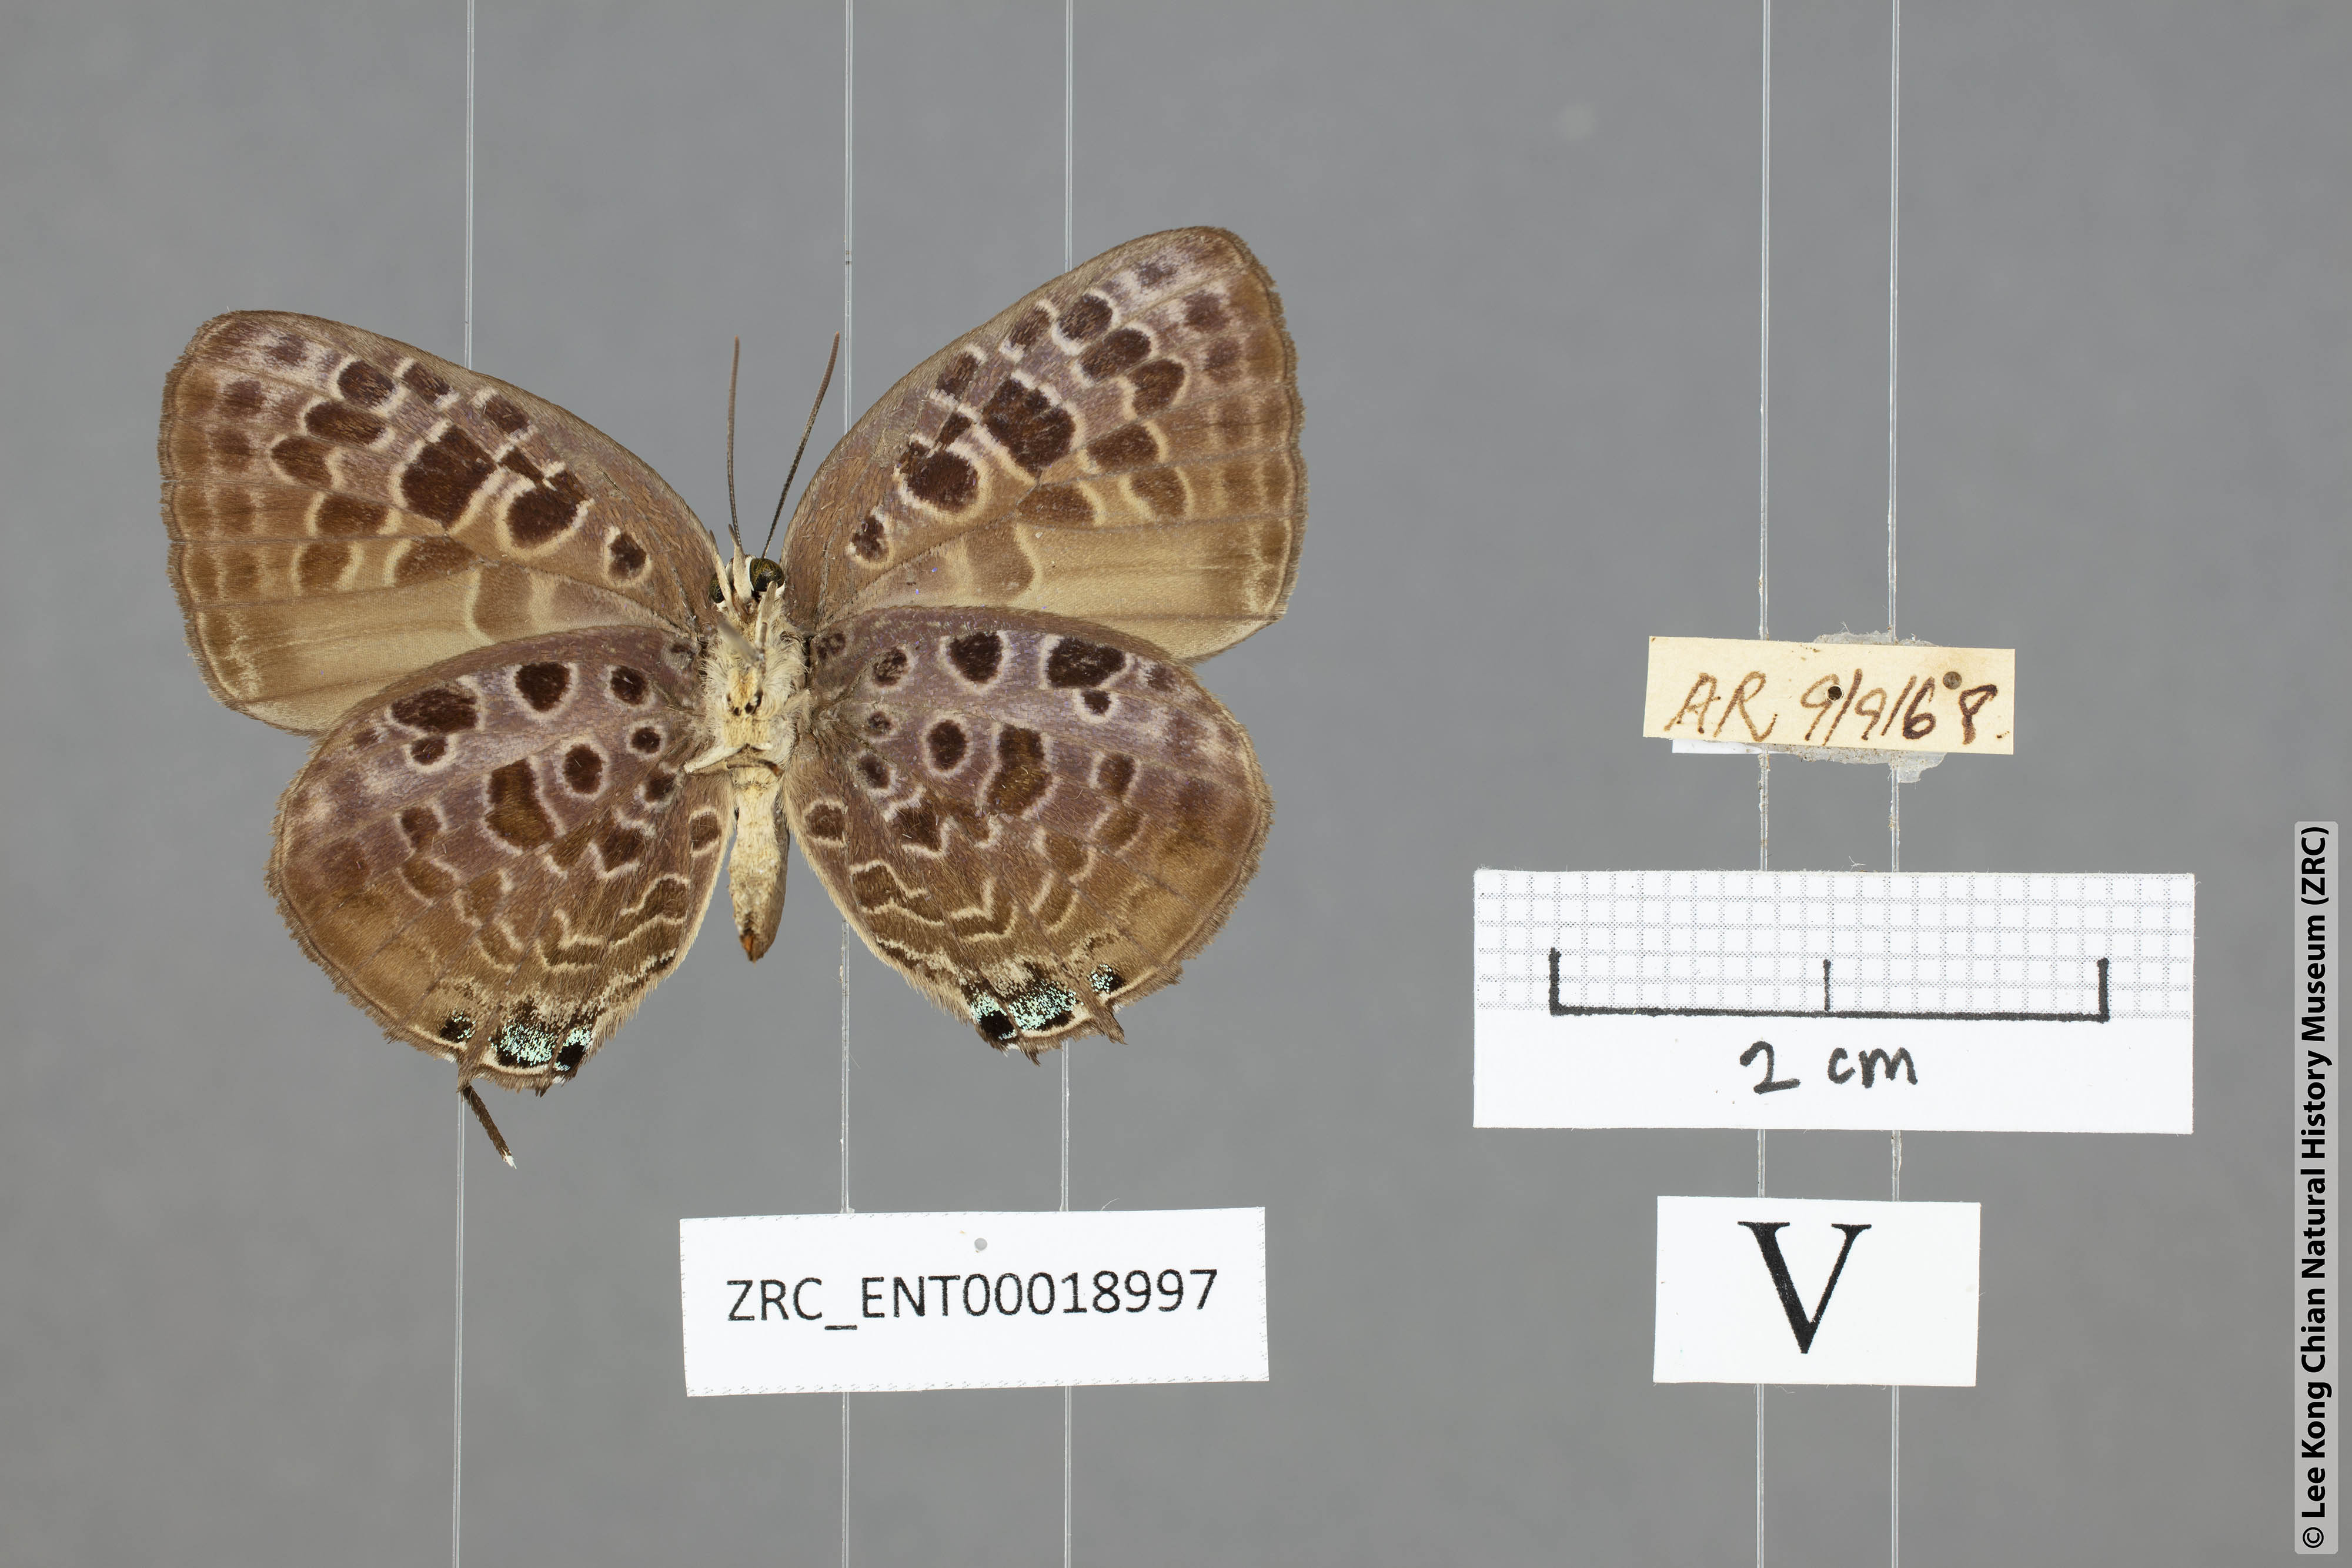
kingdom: Animalia
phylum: Arthropoda
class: Insecta
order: Lepidoptera
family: Lycaenidae
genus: Arhopala
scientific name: Arhopala achelous
